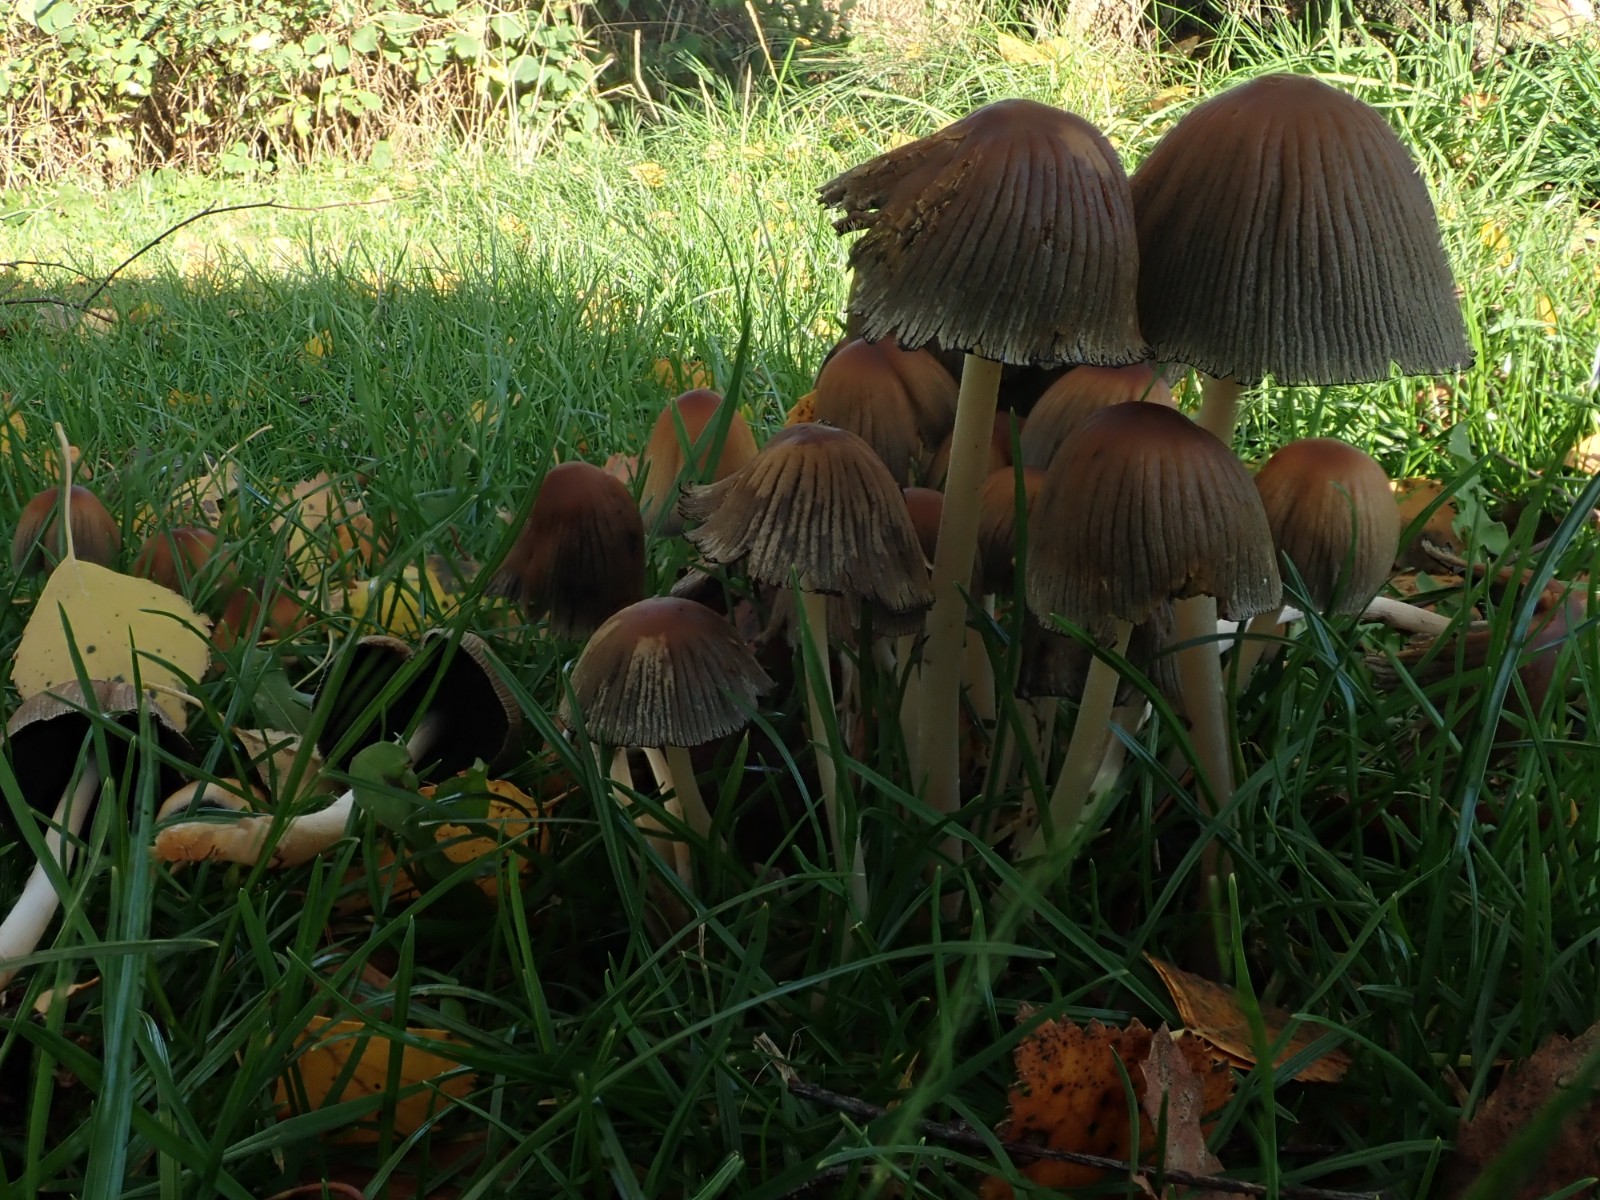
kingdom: Fungi
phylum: Basidiomycota
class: Agaricomycetes
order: Agaricales
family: Psathyrellaceae
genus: Coprinellus
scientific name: Coprinellus
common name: blækhat
